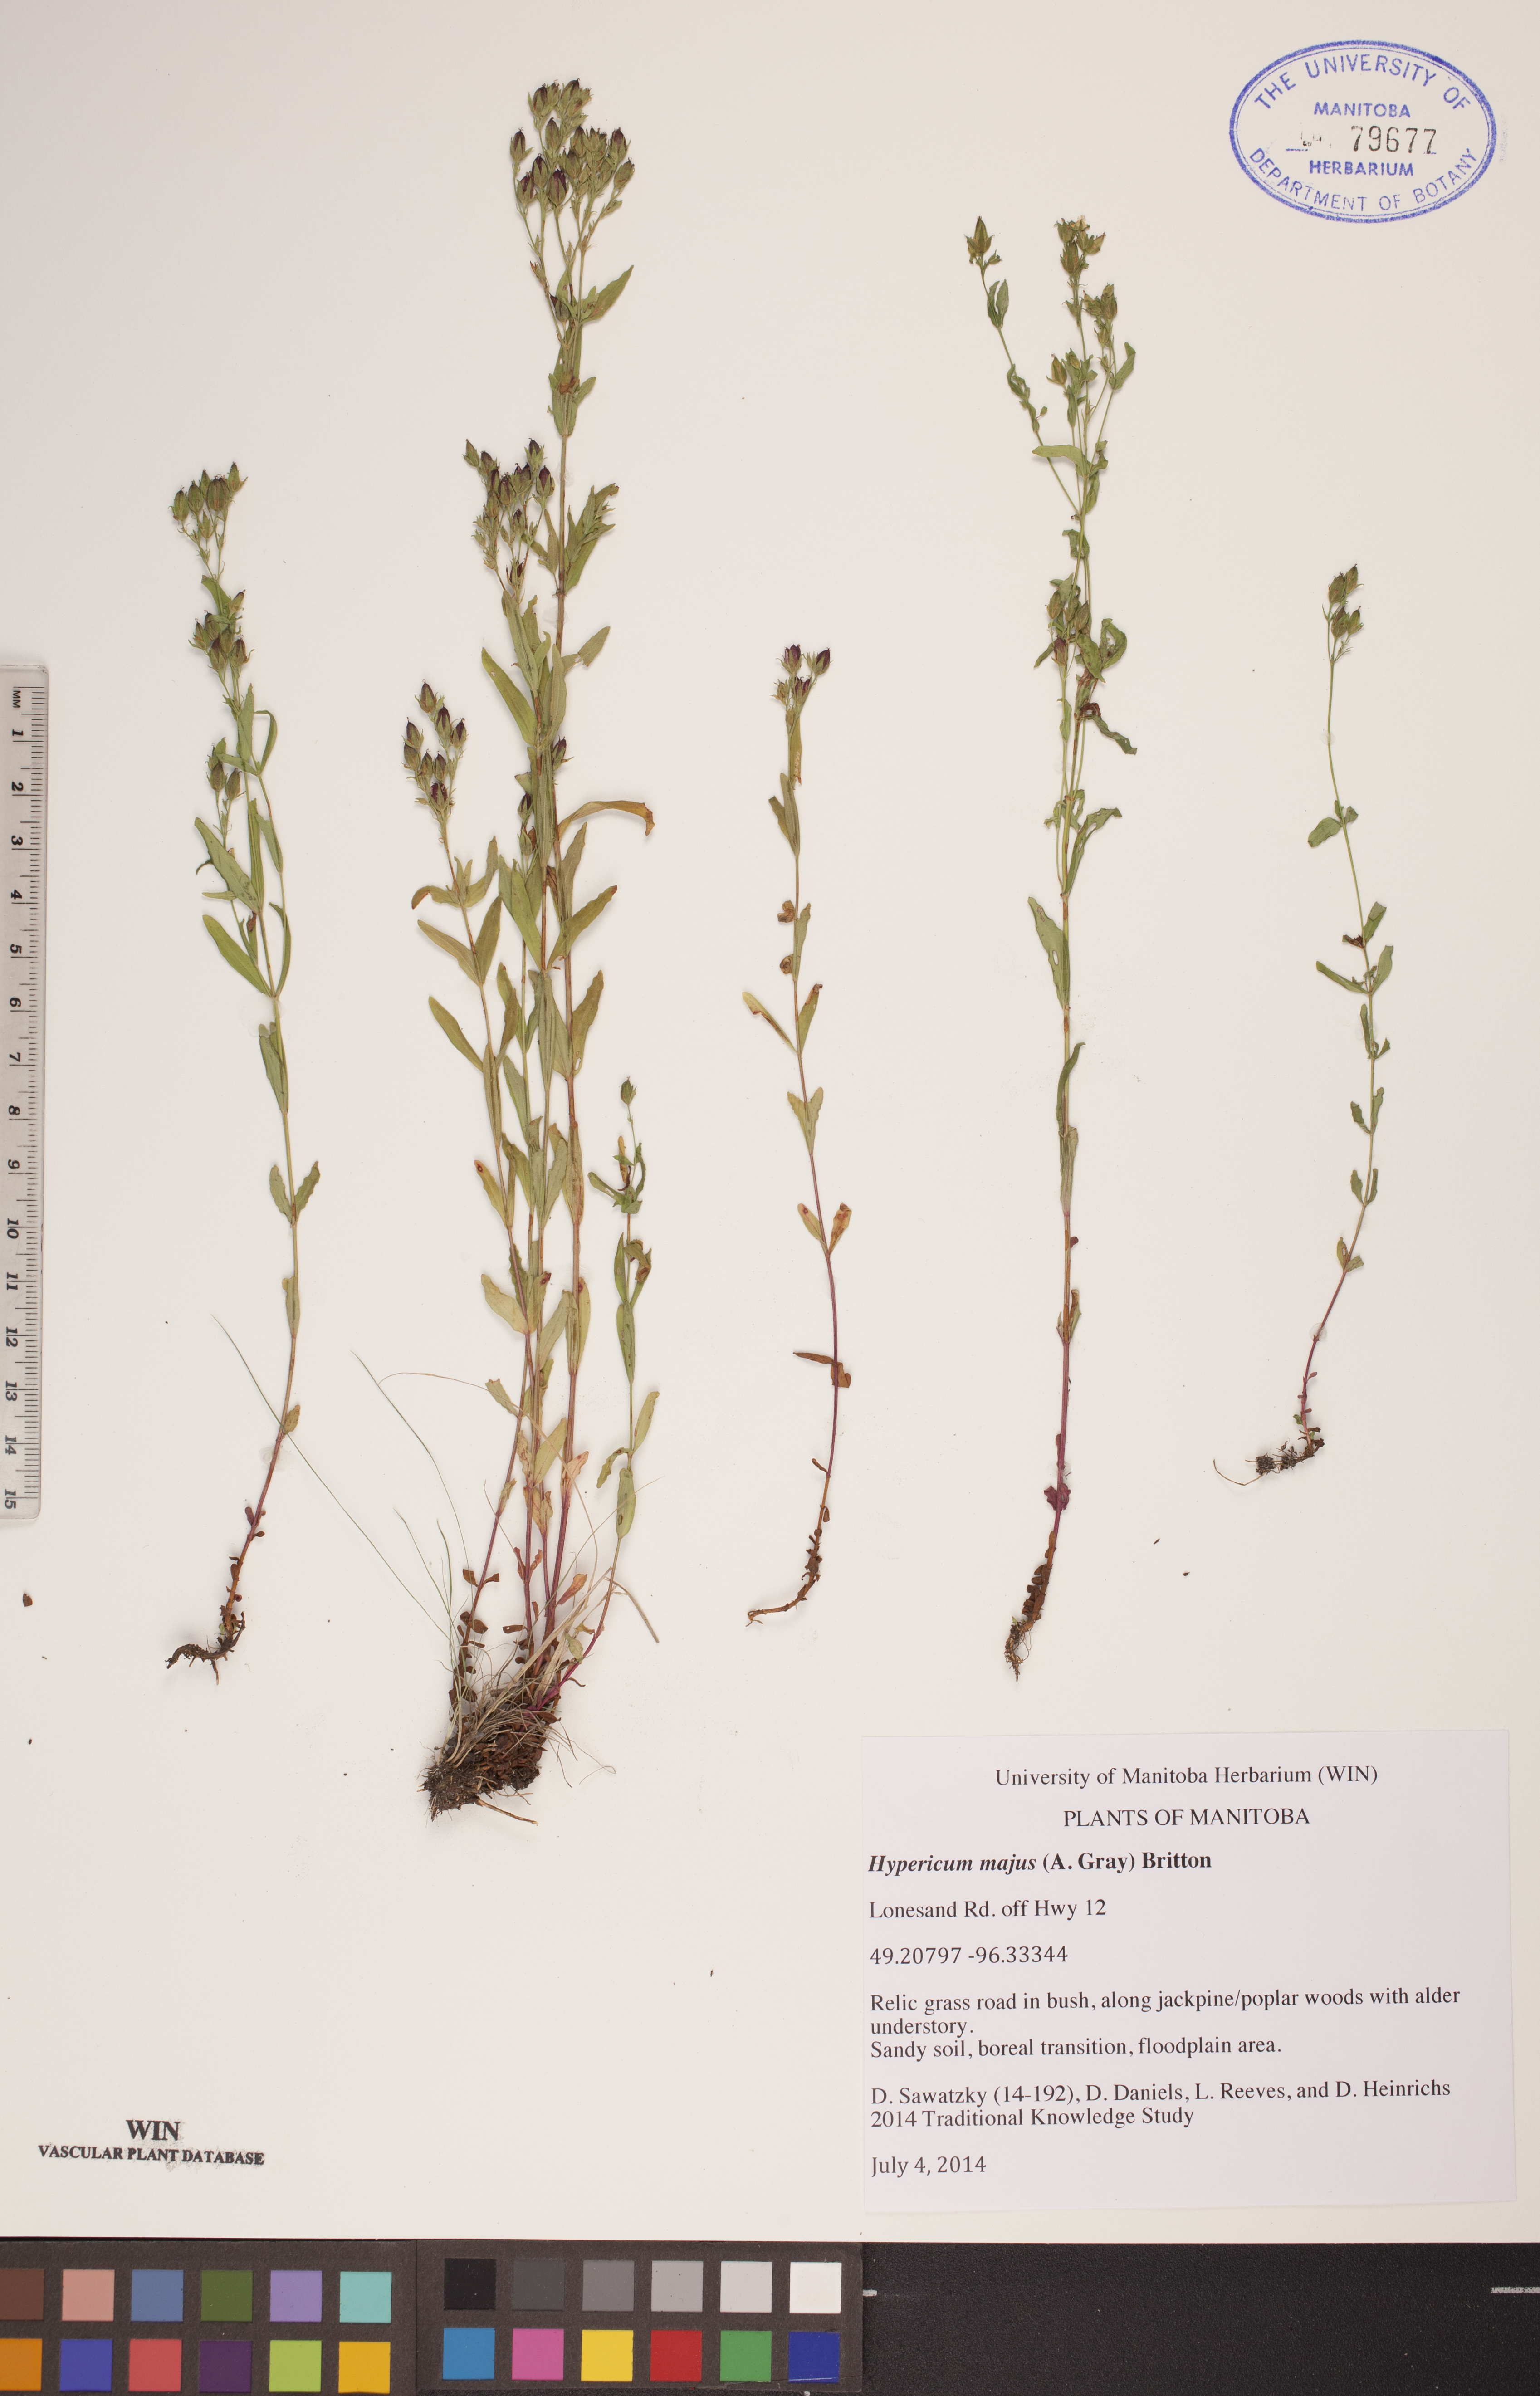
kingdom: Plantae
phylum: Tracheophyta
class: Magnoliopsida
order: Malpighiales
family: Hypericaceae
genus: Hypericum
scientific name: Hypericum majus
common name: Greater canadian st. john's-wort
